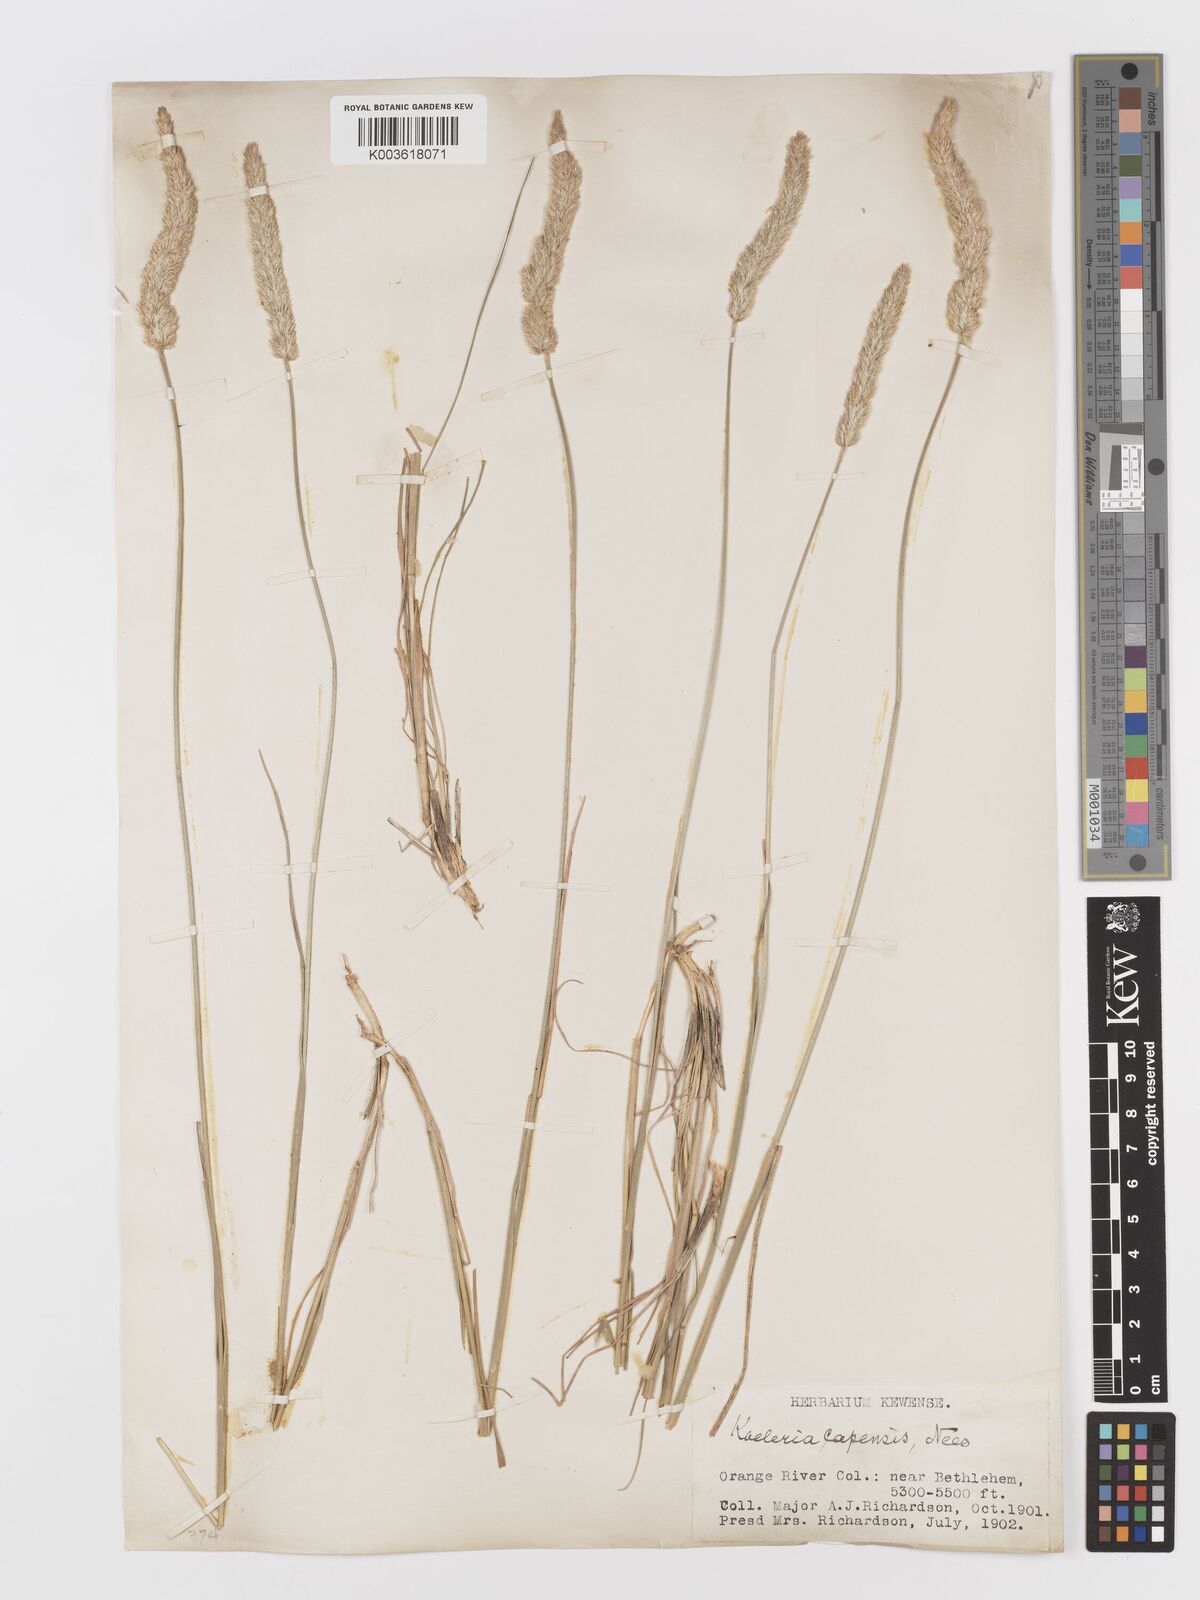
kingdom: Plantae
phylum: Tracheophyta
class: Liliopsida
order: Poales
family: Poaceae
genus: Koeleria
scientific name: Koeleria capensis
